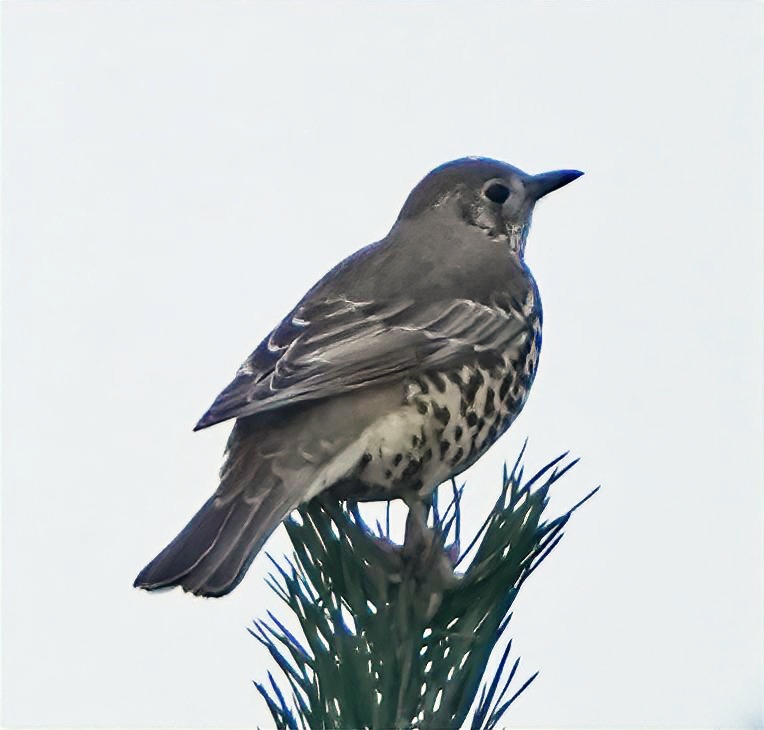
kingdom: Animalia
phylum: Chordata
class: Aves
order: Passeriformes
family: Turdidae
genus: Turdus
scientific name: Turdus viscivorus
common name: Misteldrossel
